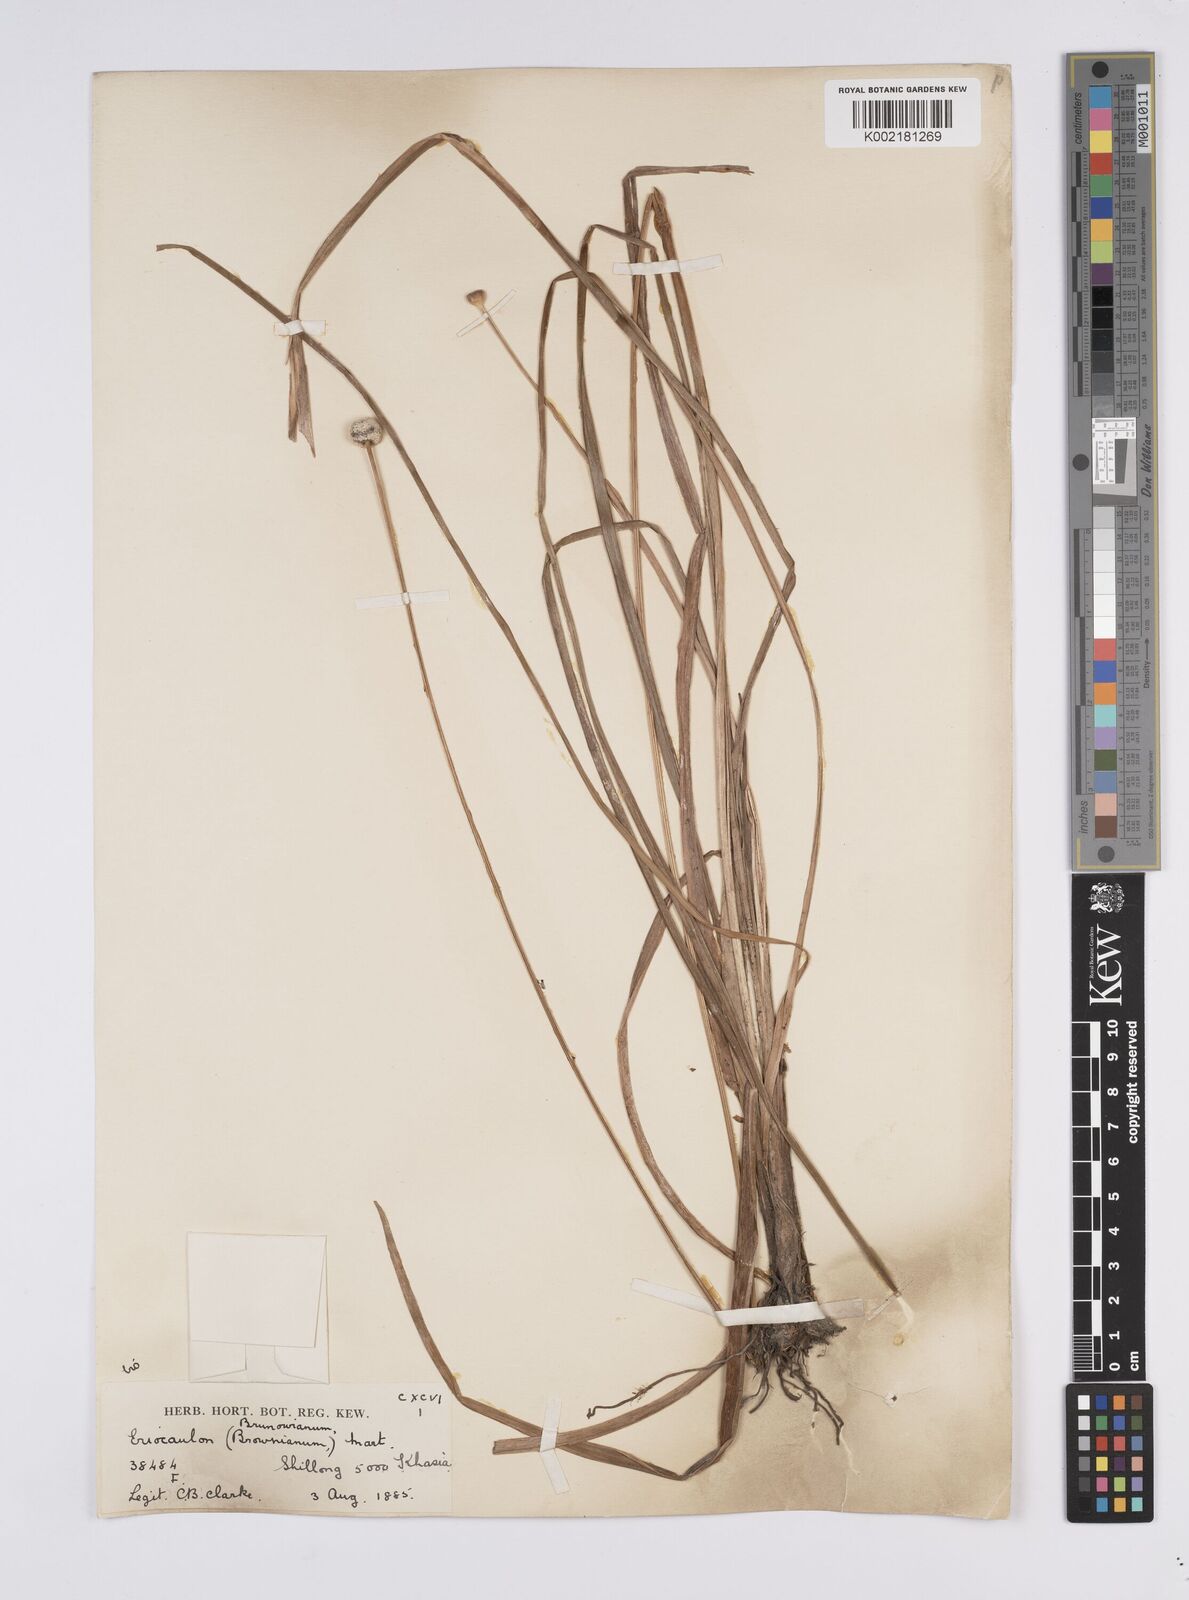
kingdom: Plantae
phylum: Tracheophyta
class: Liliopsida
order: Poales
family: Eriocaulaceae
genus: Eriocaulon
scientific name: Eriocaulon brownianum
